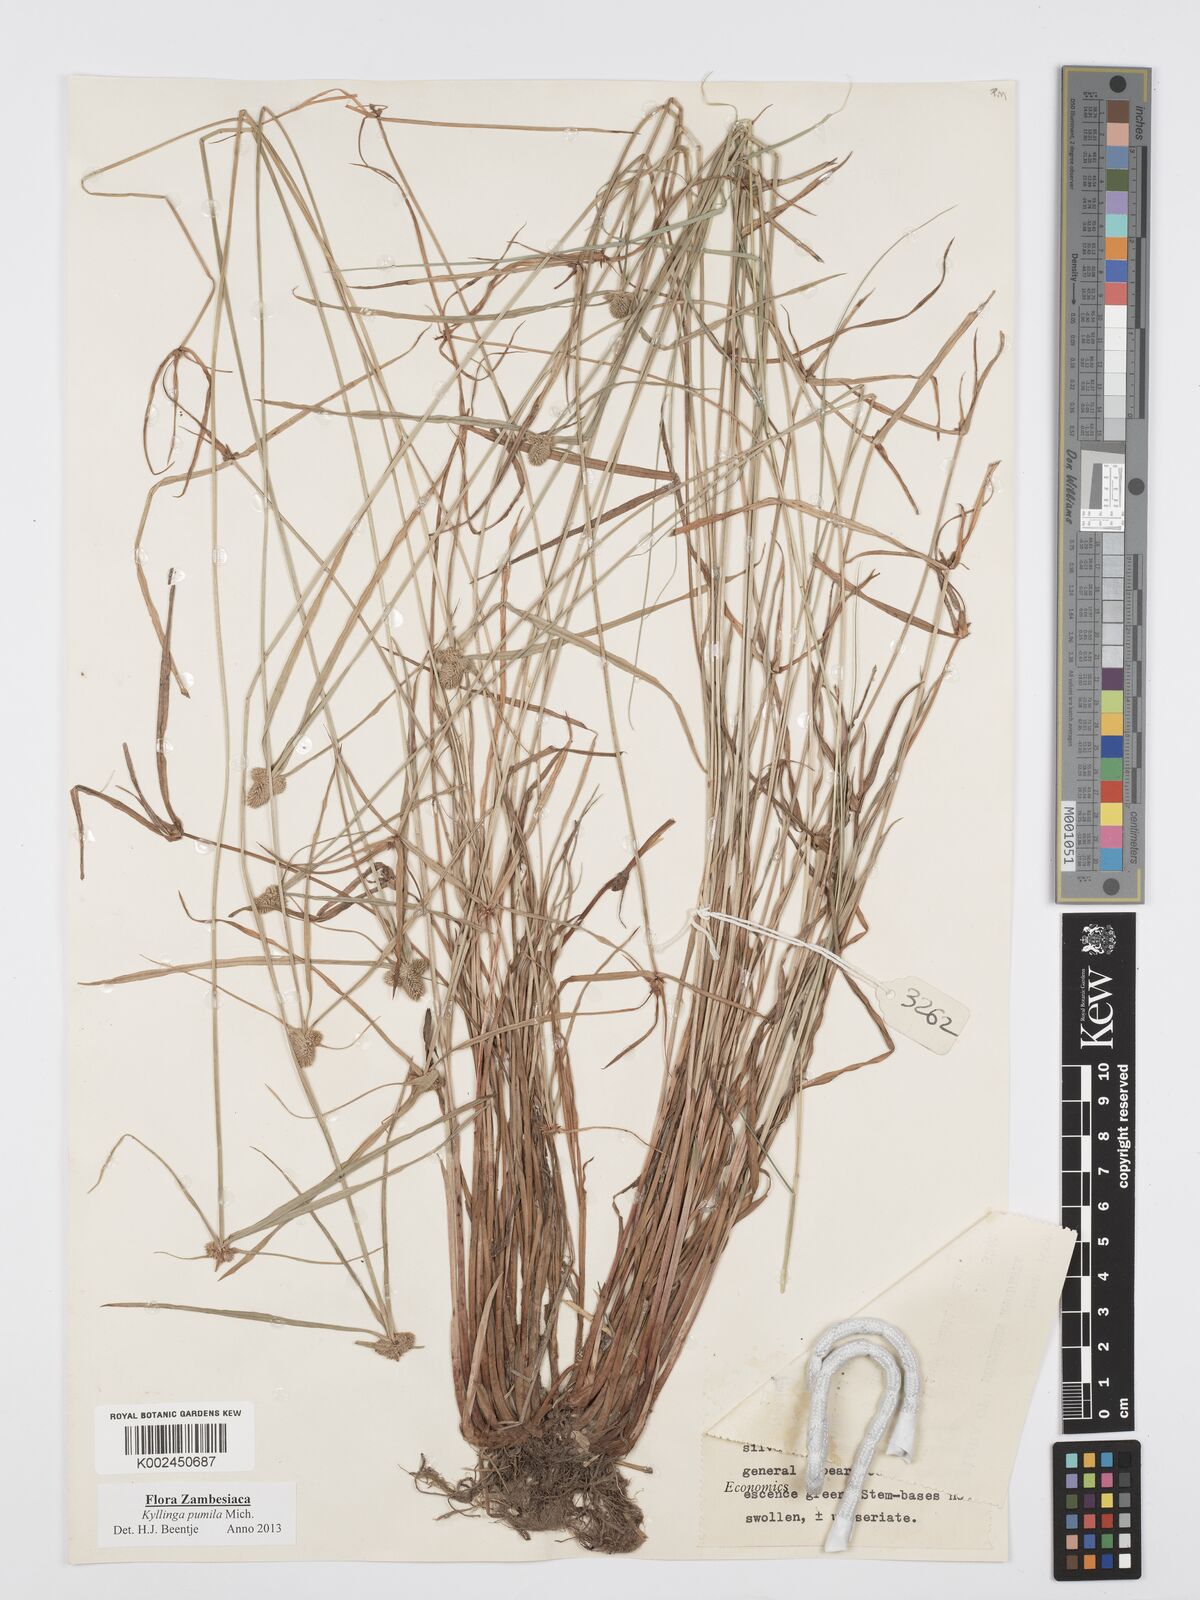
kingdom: Plantae
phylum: Tracheophyta
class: Liliopsida
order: Poales
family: Cyperaceae
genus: Cyperus
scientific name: Cyperus pumilus
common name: Low flatsedge
